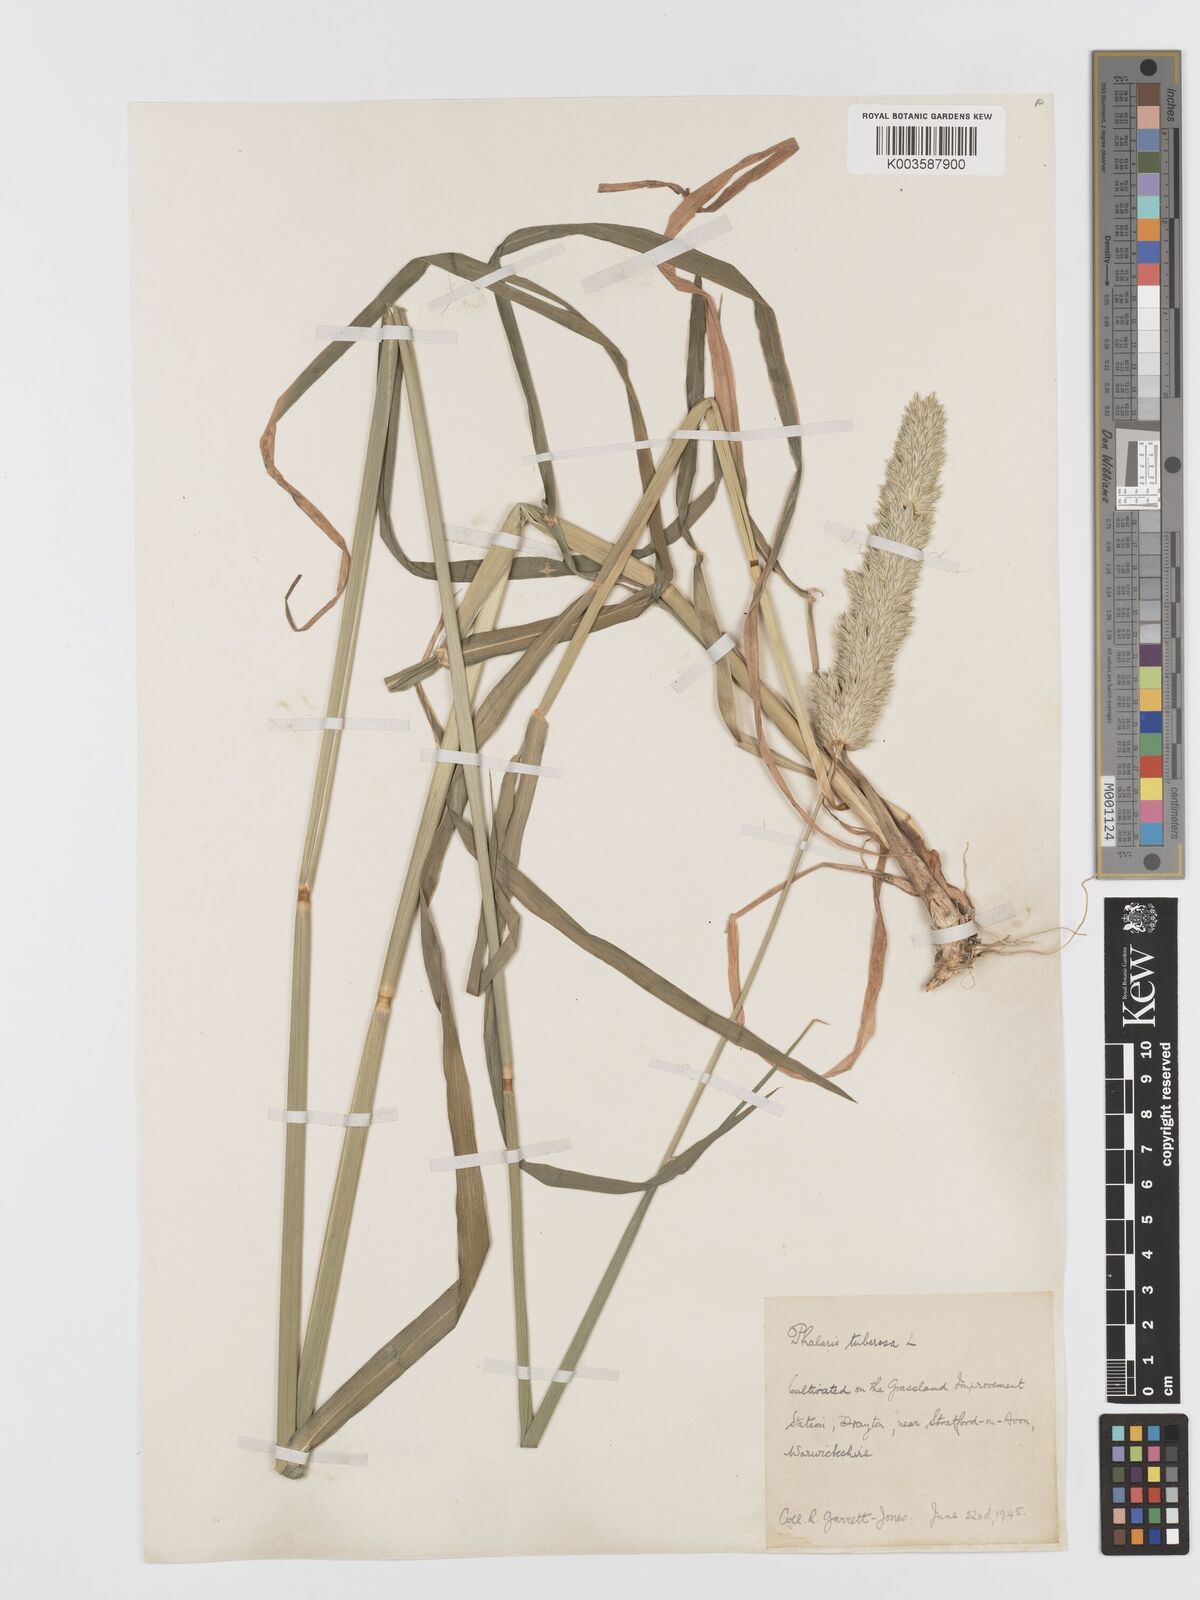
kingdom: Plantae
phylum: Tracheophyta
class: Liliopsida
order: Poales
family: Poaceae
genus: Phalaris
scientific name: Phalaris
